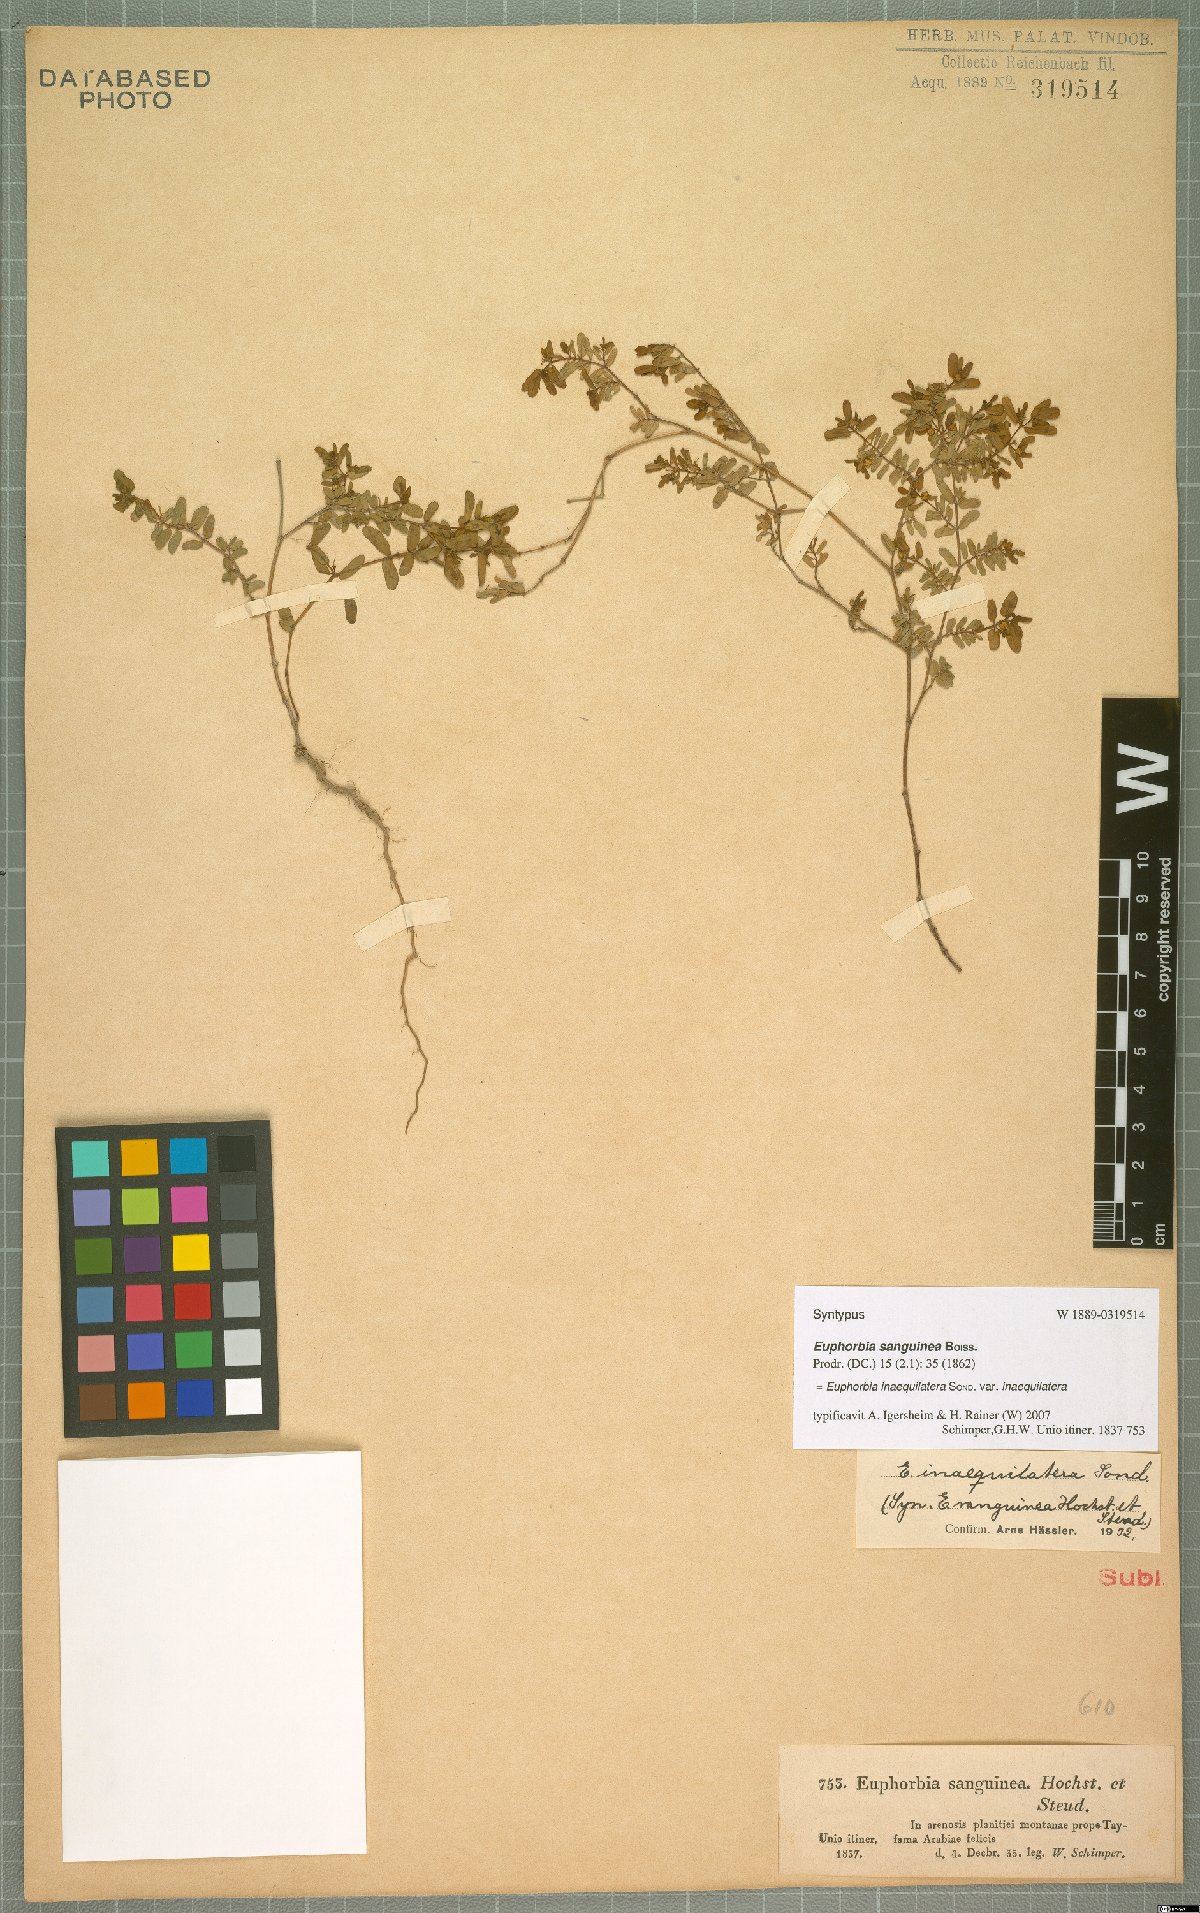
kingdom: Plantae
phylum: Tracheophyta
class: Magnoliopsida
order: Malpighiales
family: Euphorbiaceae
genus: Euphorbia
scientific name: Euphorbia inaequilatera
